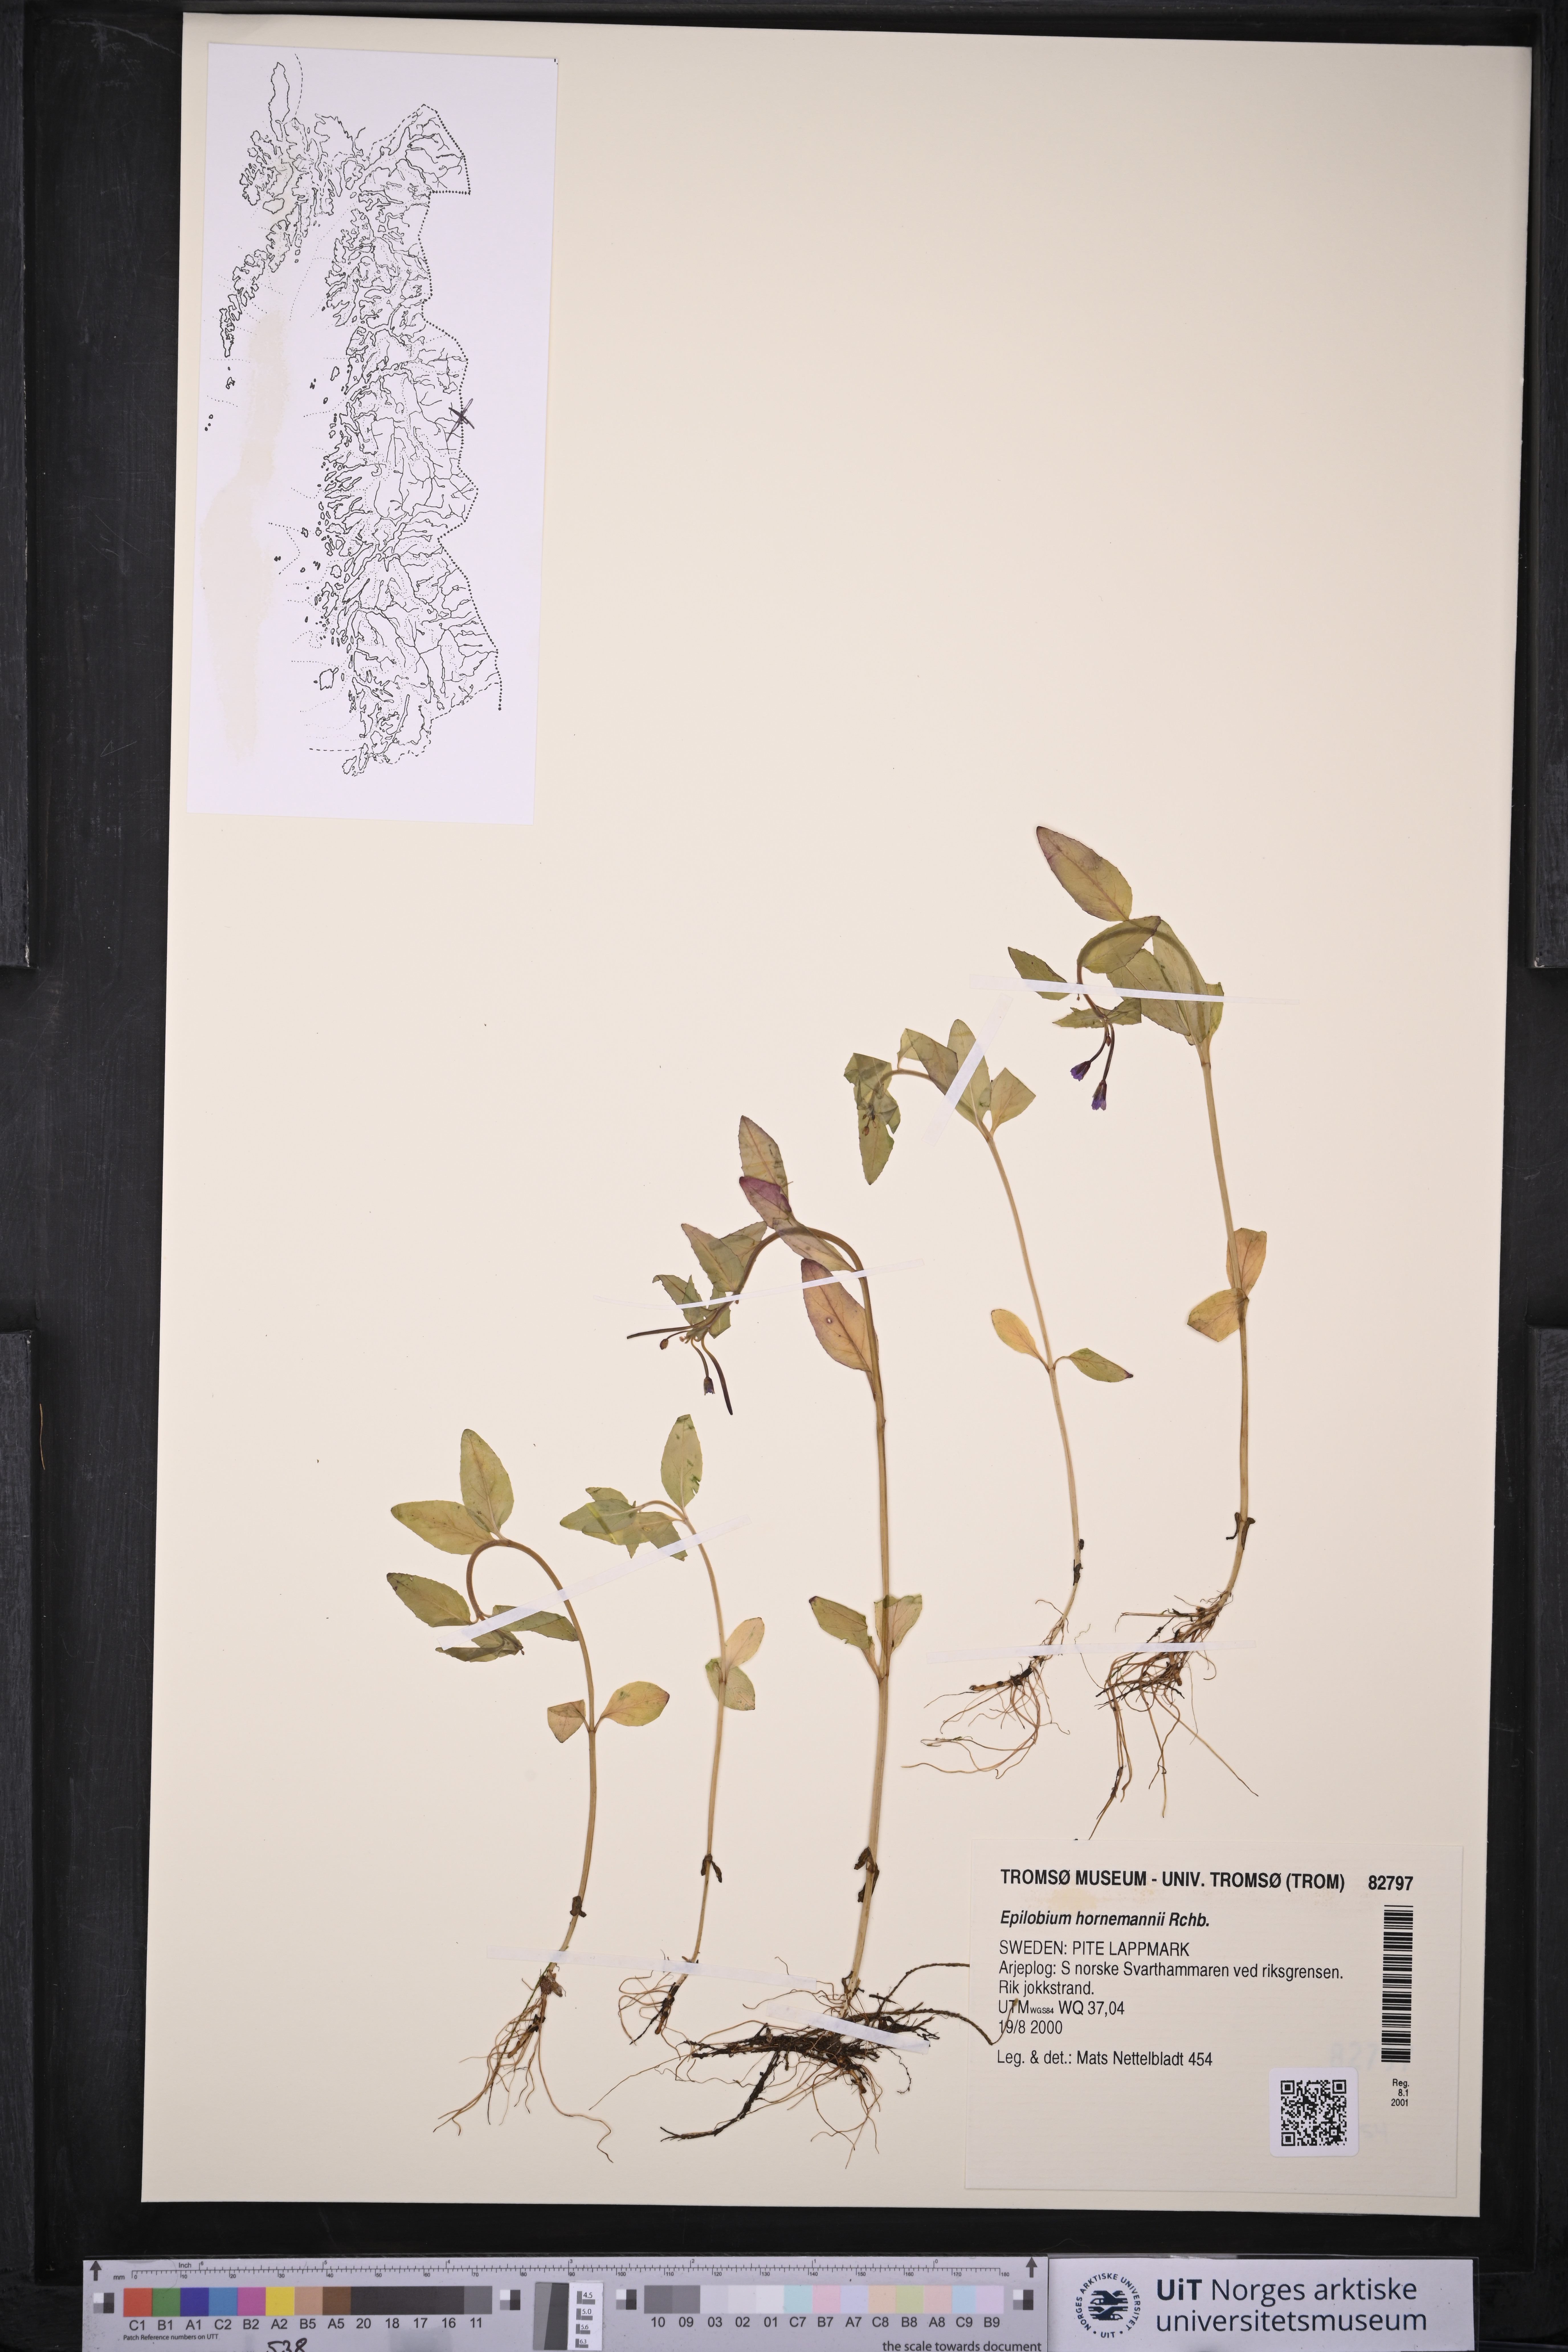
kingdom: Plantae
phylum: Tracheophyta
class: Magnoliopsida
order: Myrtales
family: Onagraceae
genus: Epilobium
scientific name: Epilobium hornemannii
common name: Hornemann's willowherb
